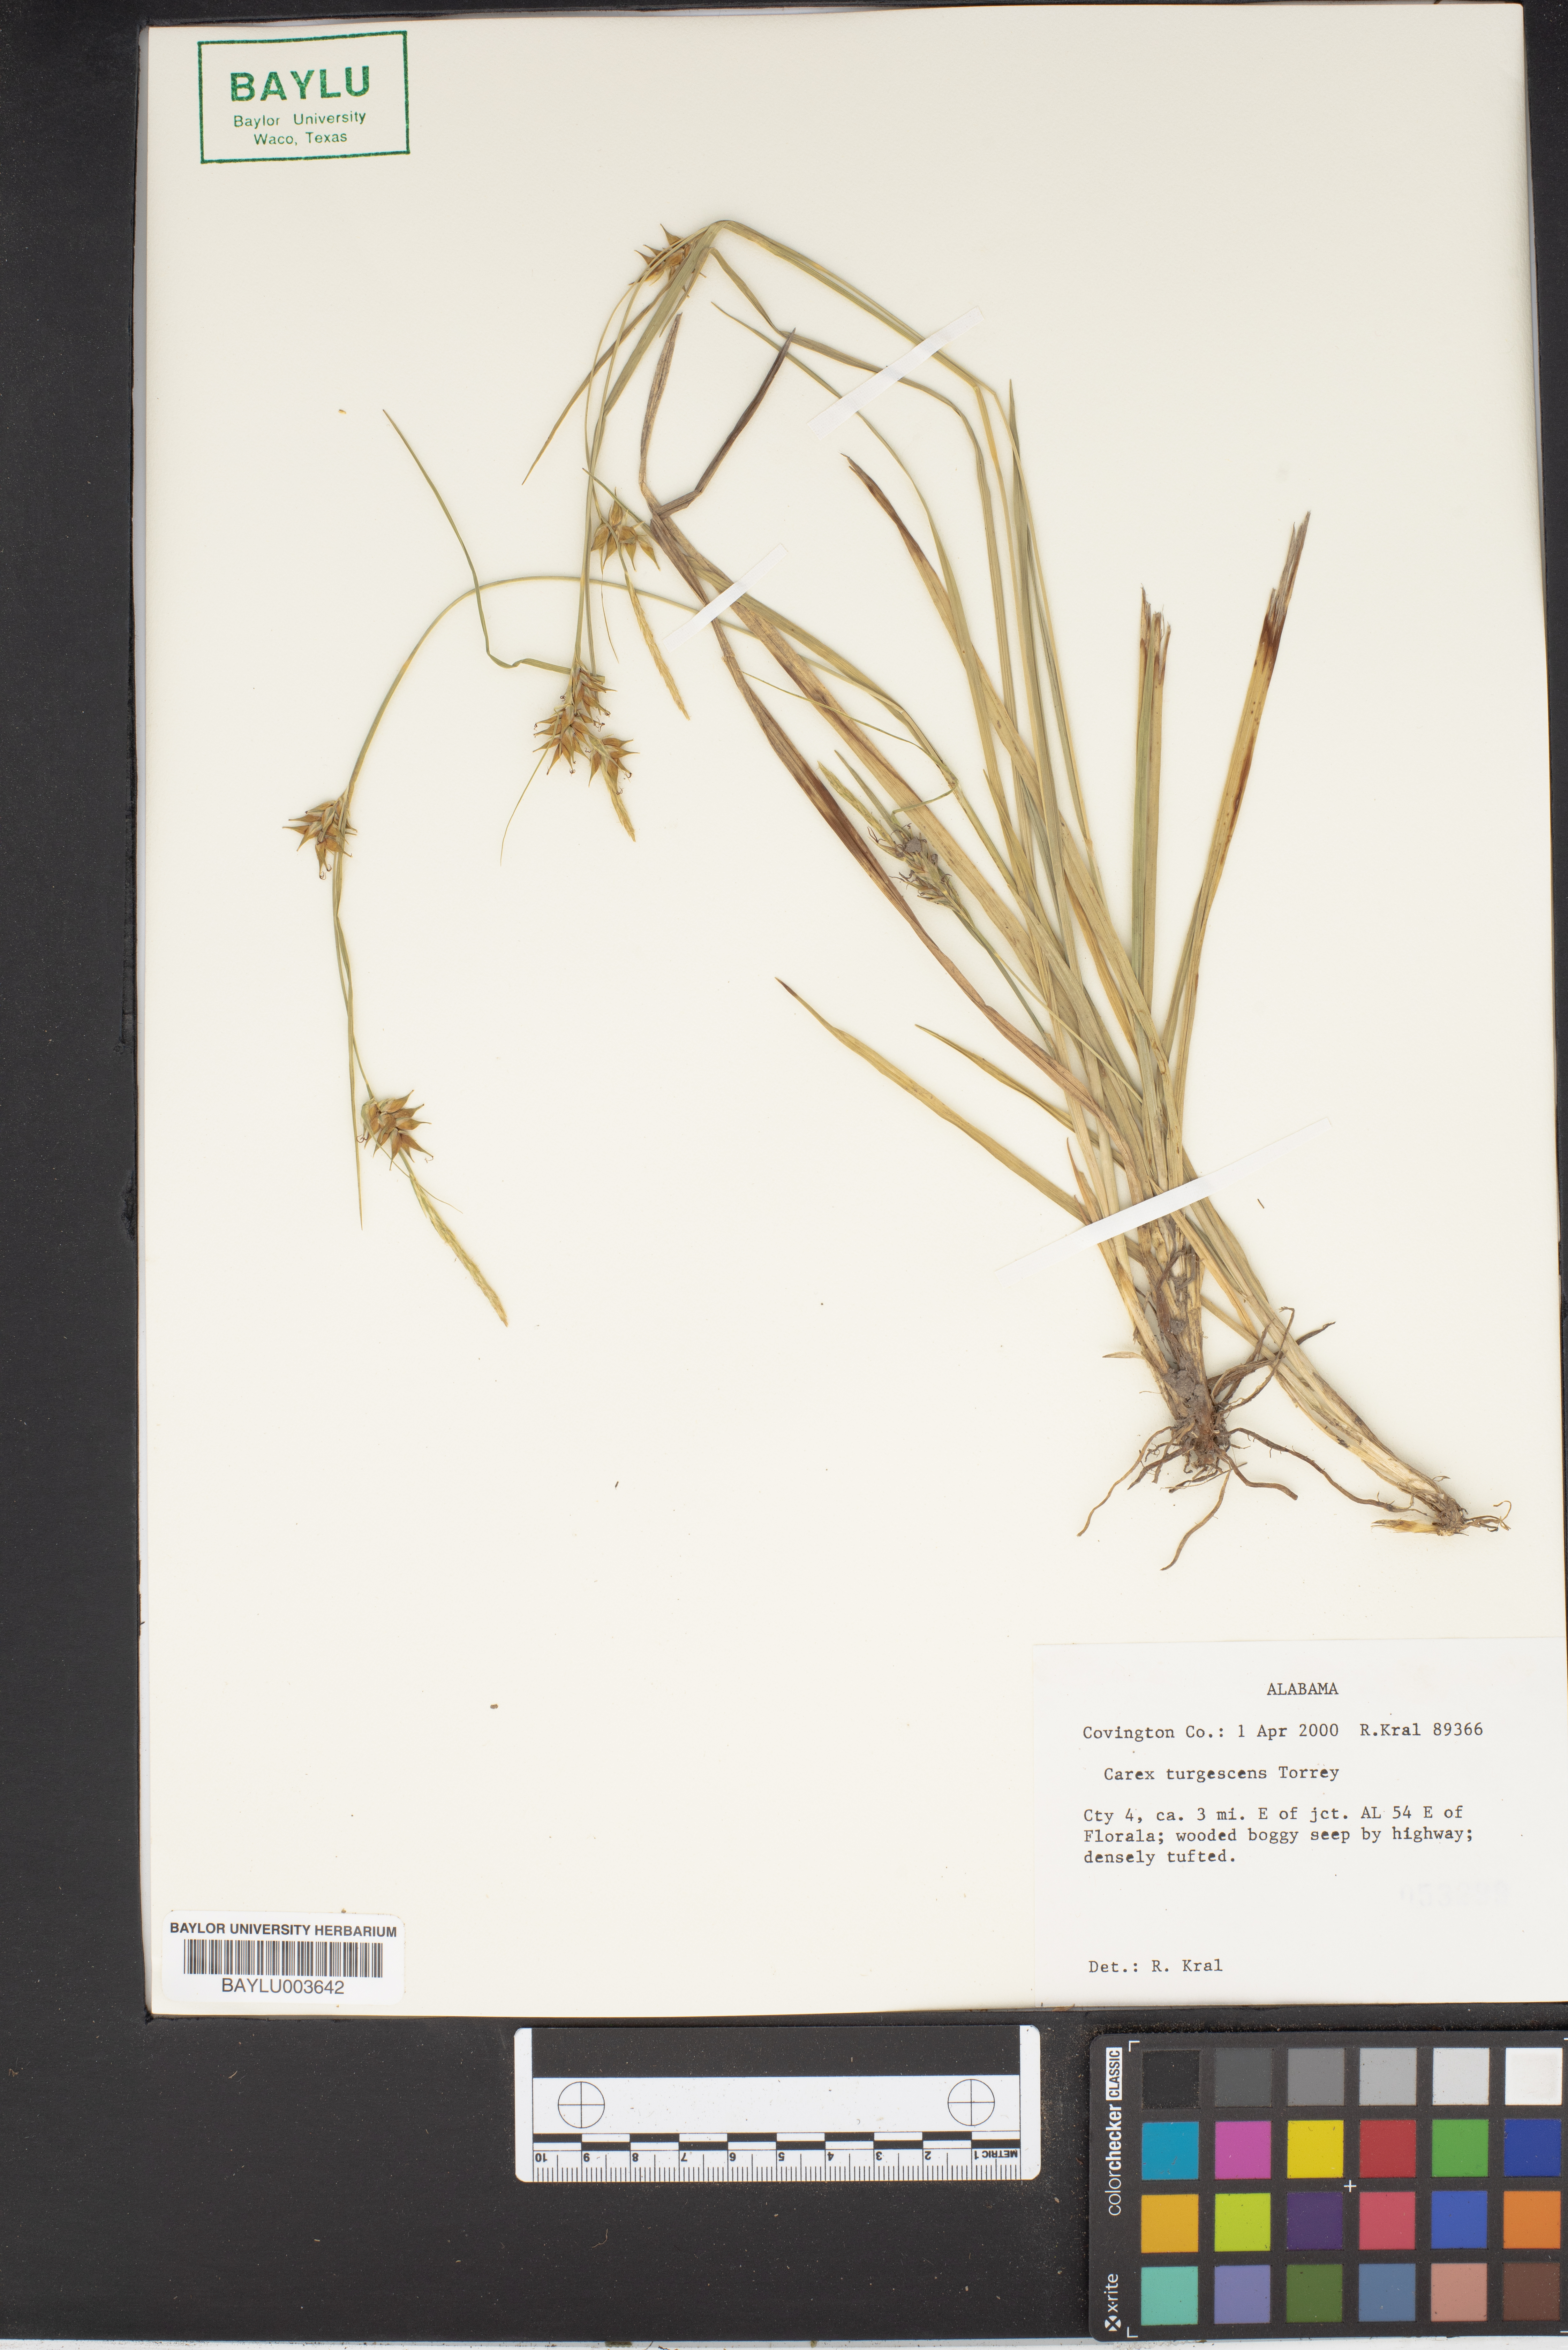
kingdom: Plantae
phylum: Tracheophyta
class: Liliopsida
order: Poales
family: Cyperaceae
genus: Carex
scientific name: Carex turgescens
